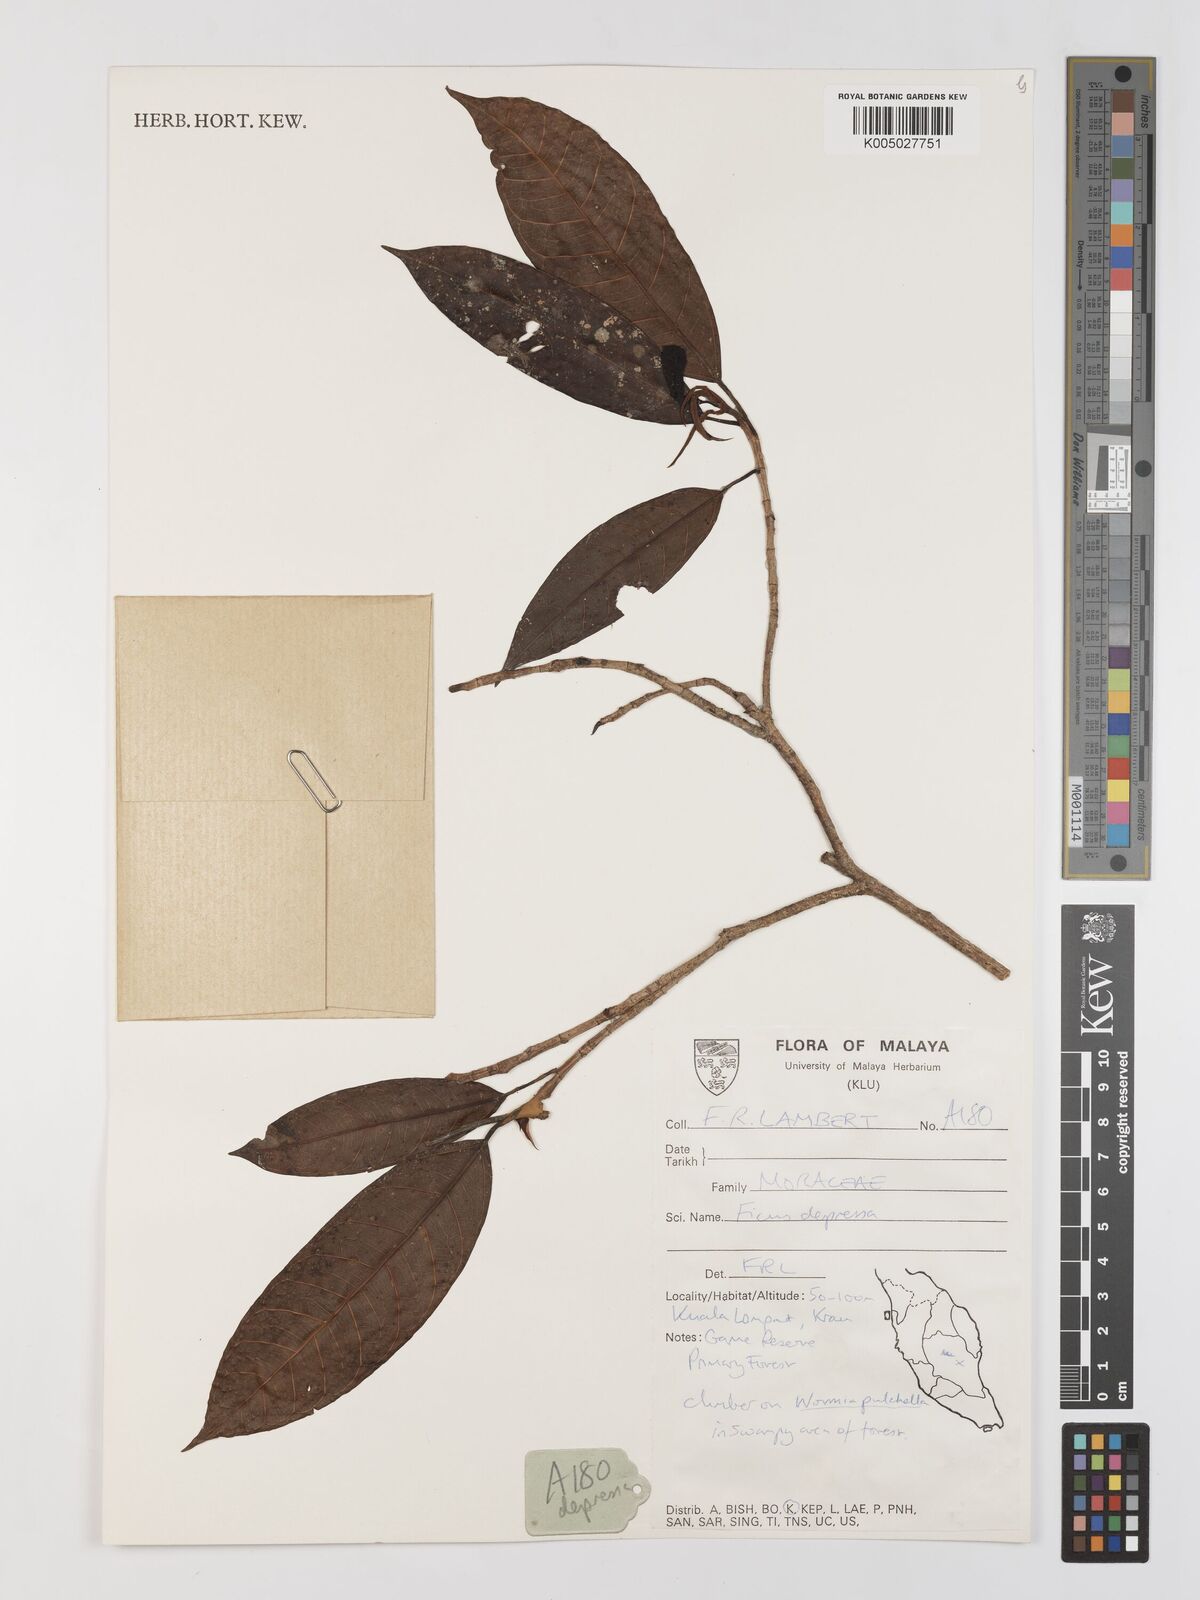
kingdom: Plantae
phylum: Tracheophyta
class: Magnoliopsida
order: Rosales
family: Moraceae
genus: Ficus
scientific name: Ficus
